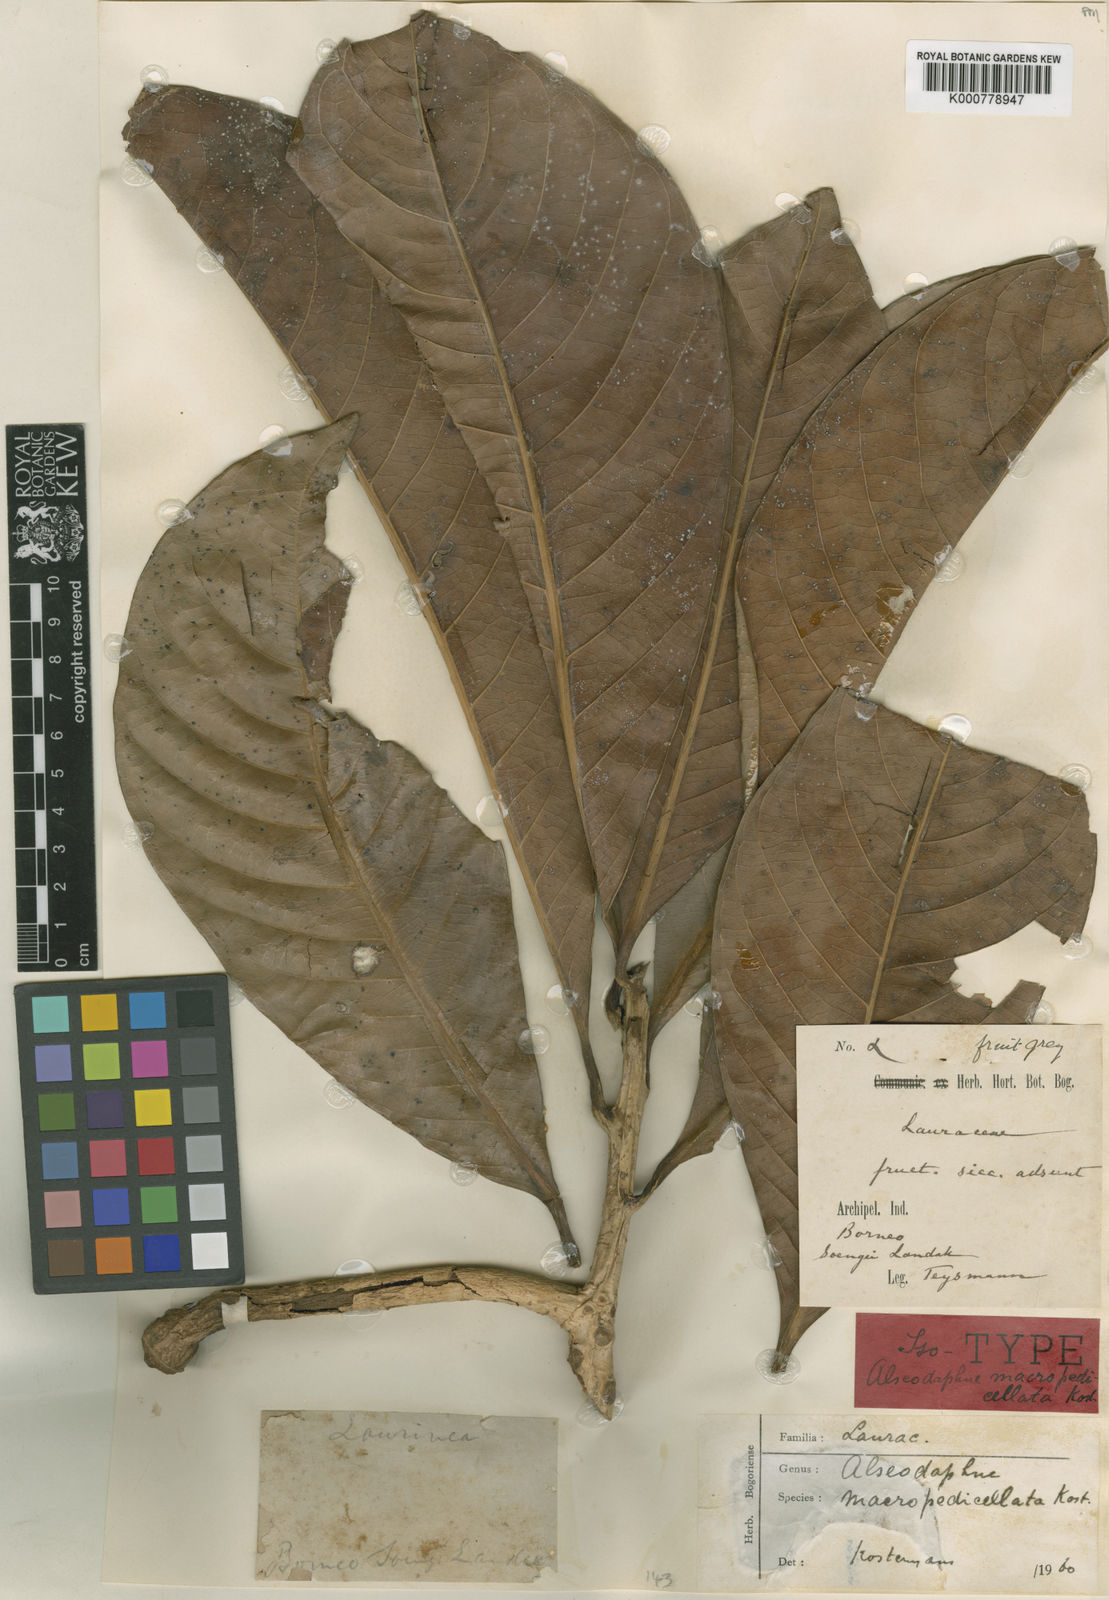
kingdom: Plantae
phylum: Tracheophyta
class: Magnoliopsida
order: Laurales
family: Lauraceae
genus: Alseodaphne
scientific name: Alseodaphne
